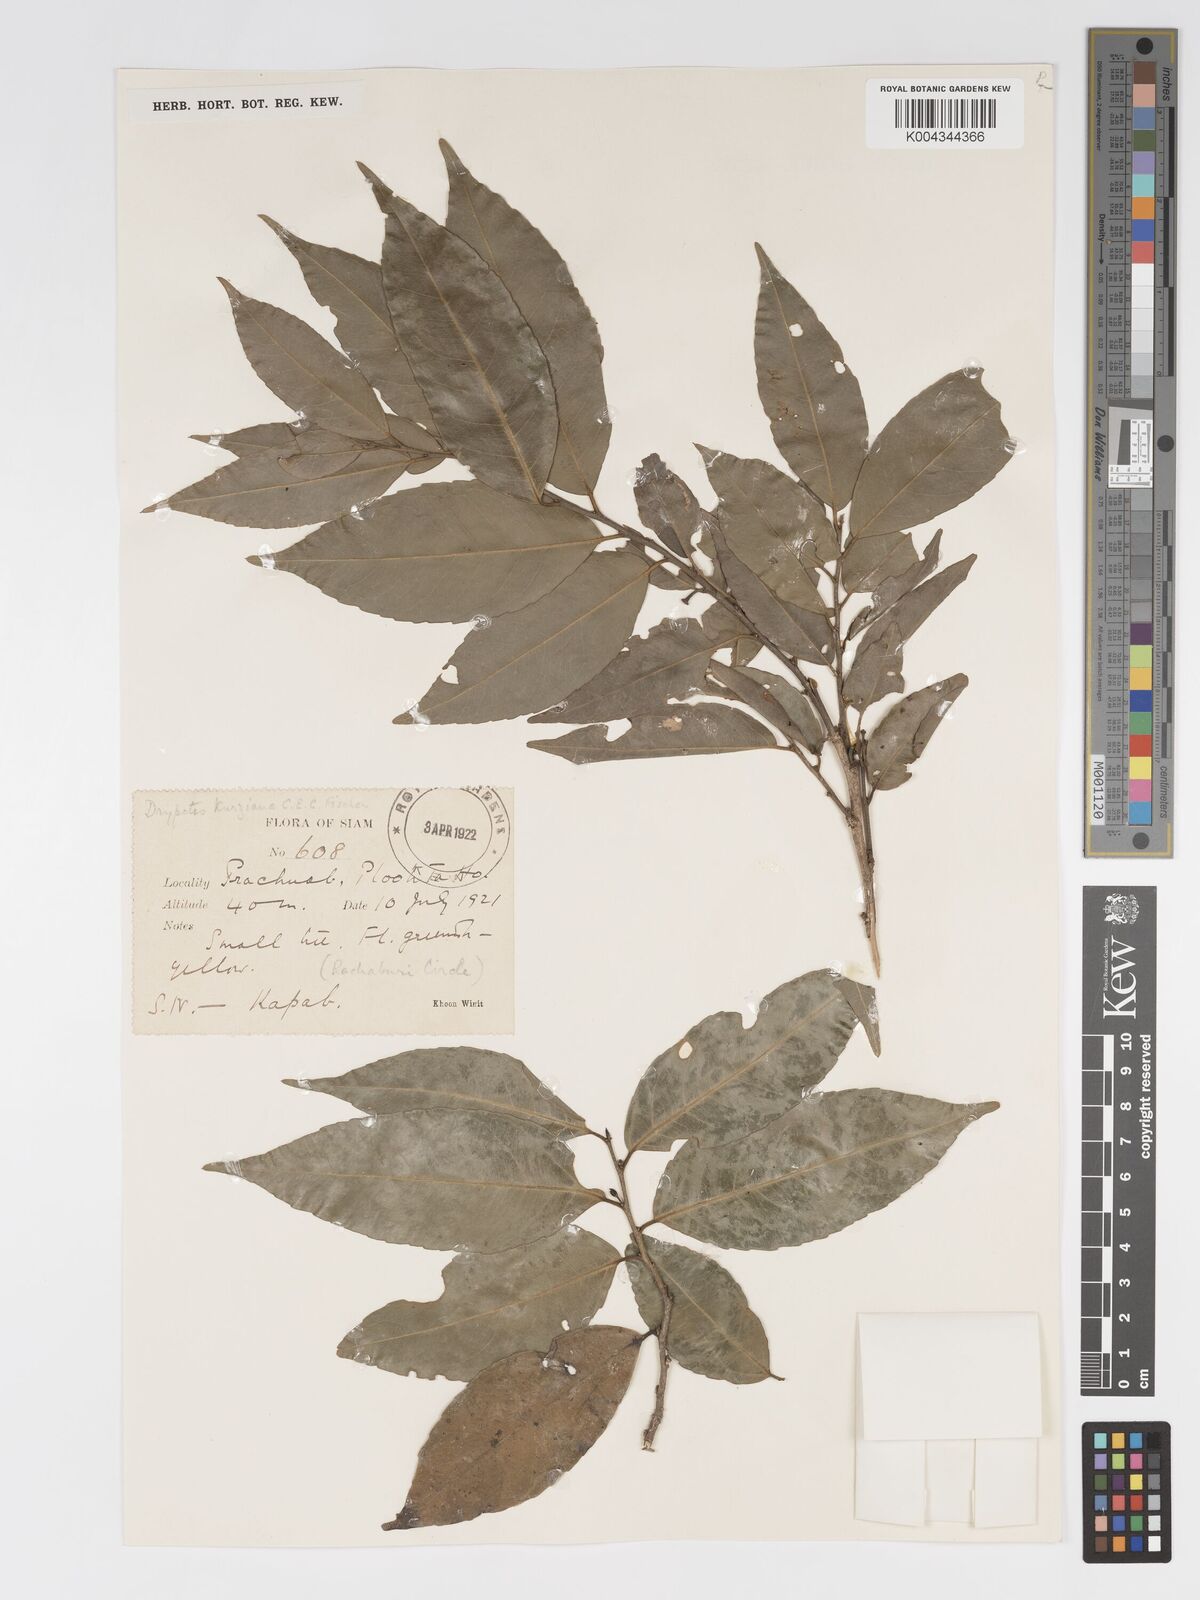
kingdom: Plantae
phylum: Tracheophyta
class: Magnoliopsida
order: Malpighiales
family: Putranjivaceae
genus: Drypetes
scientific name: Drypetes cambodica
